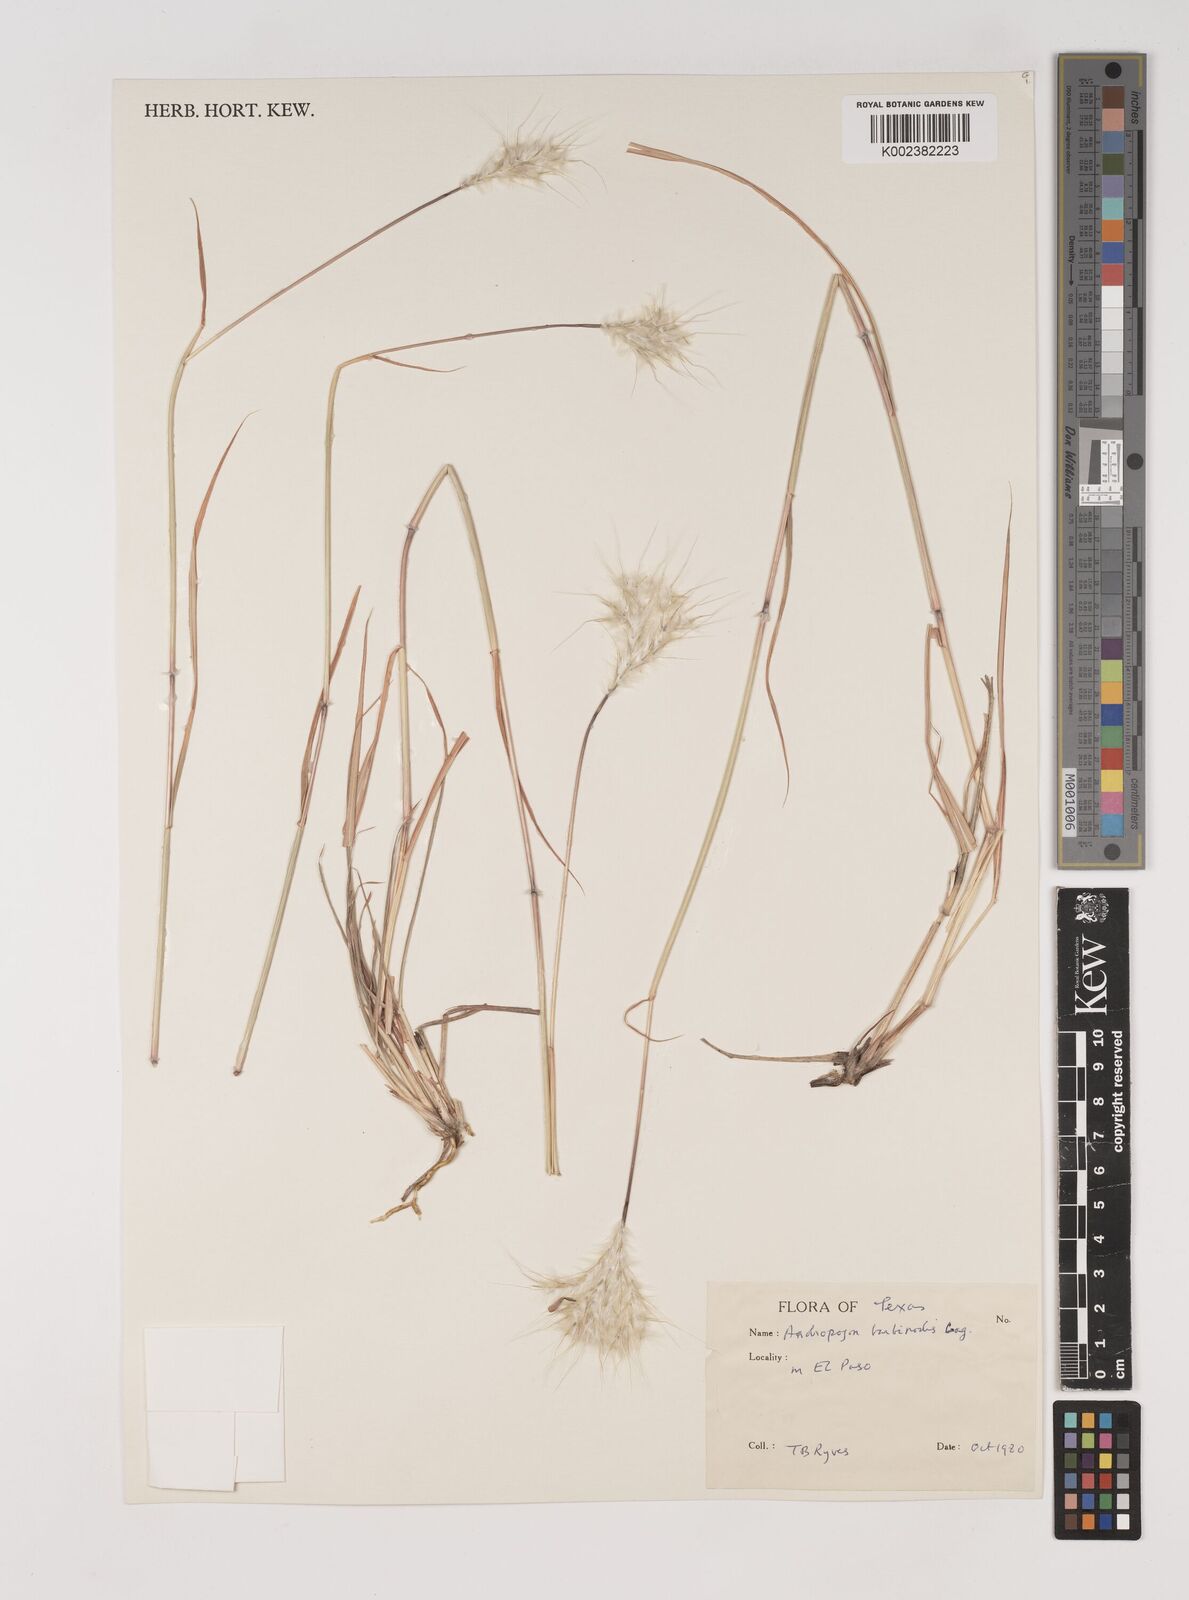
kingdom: Plantae
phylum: Tracheophyta
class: Liliopsida
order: Poales
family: Poaceae
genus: Bothriochloa
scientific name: Bothriochloa springfieldii
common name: Springfield bluestem
